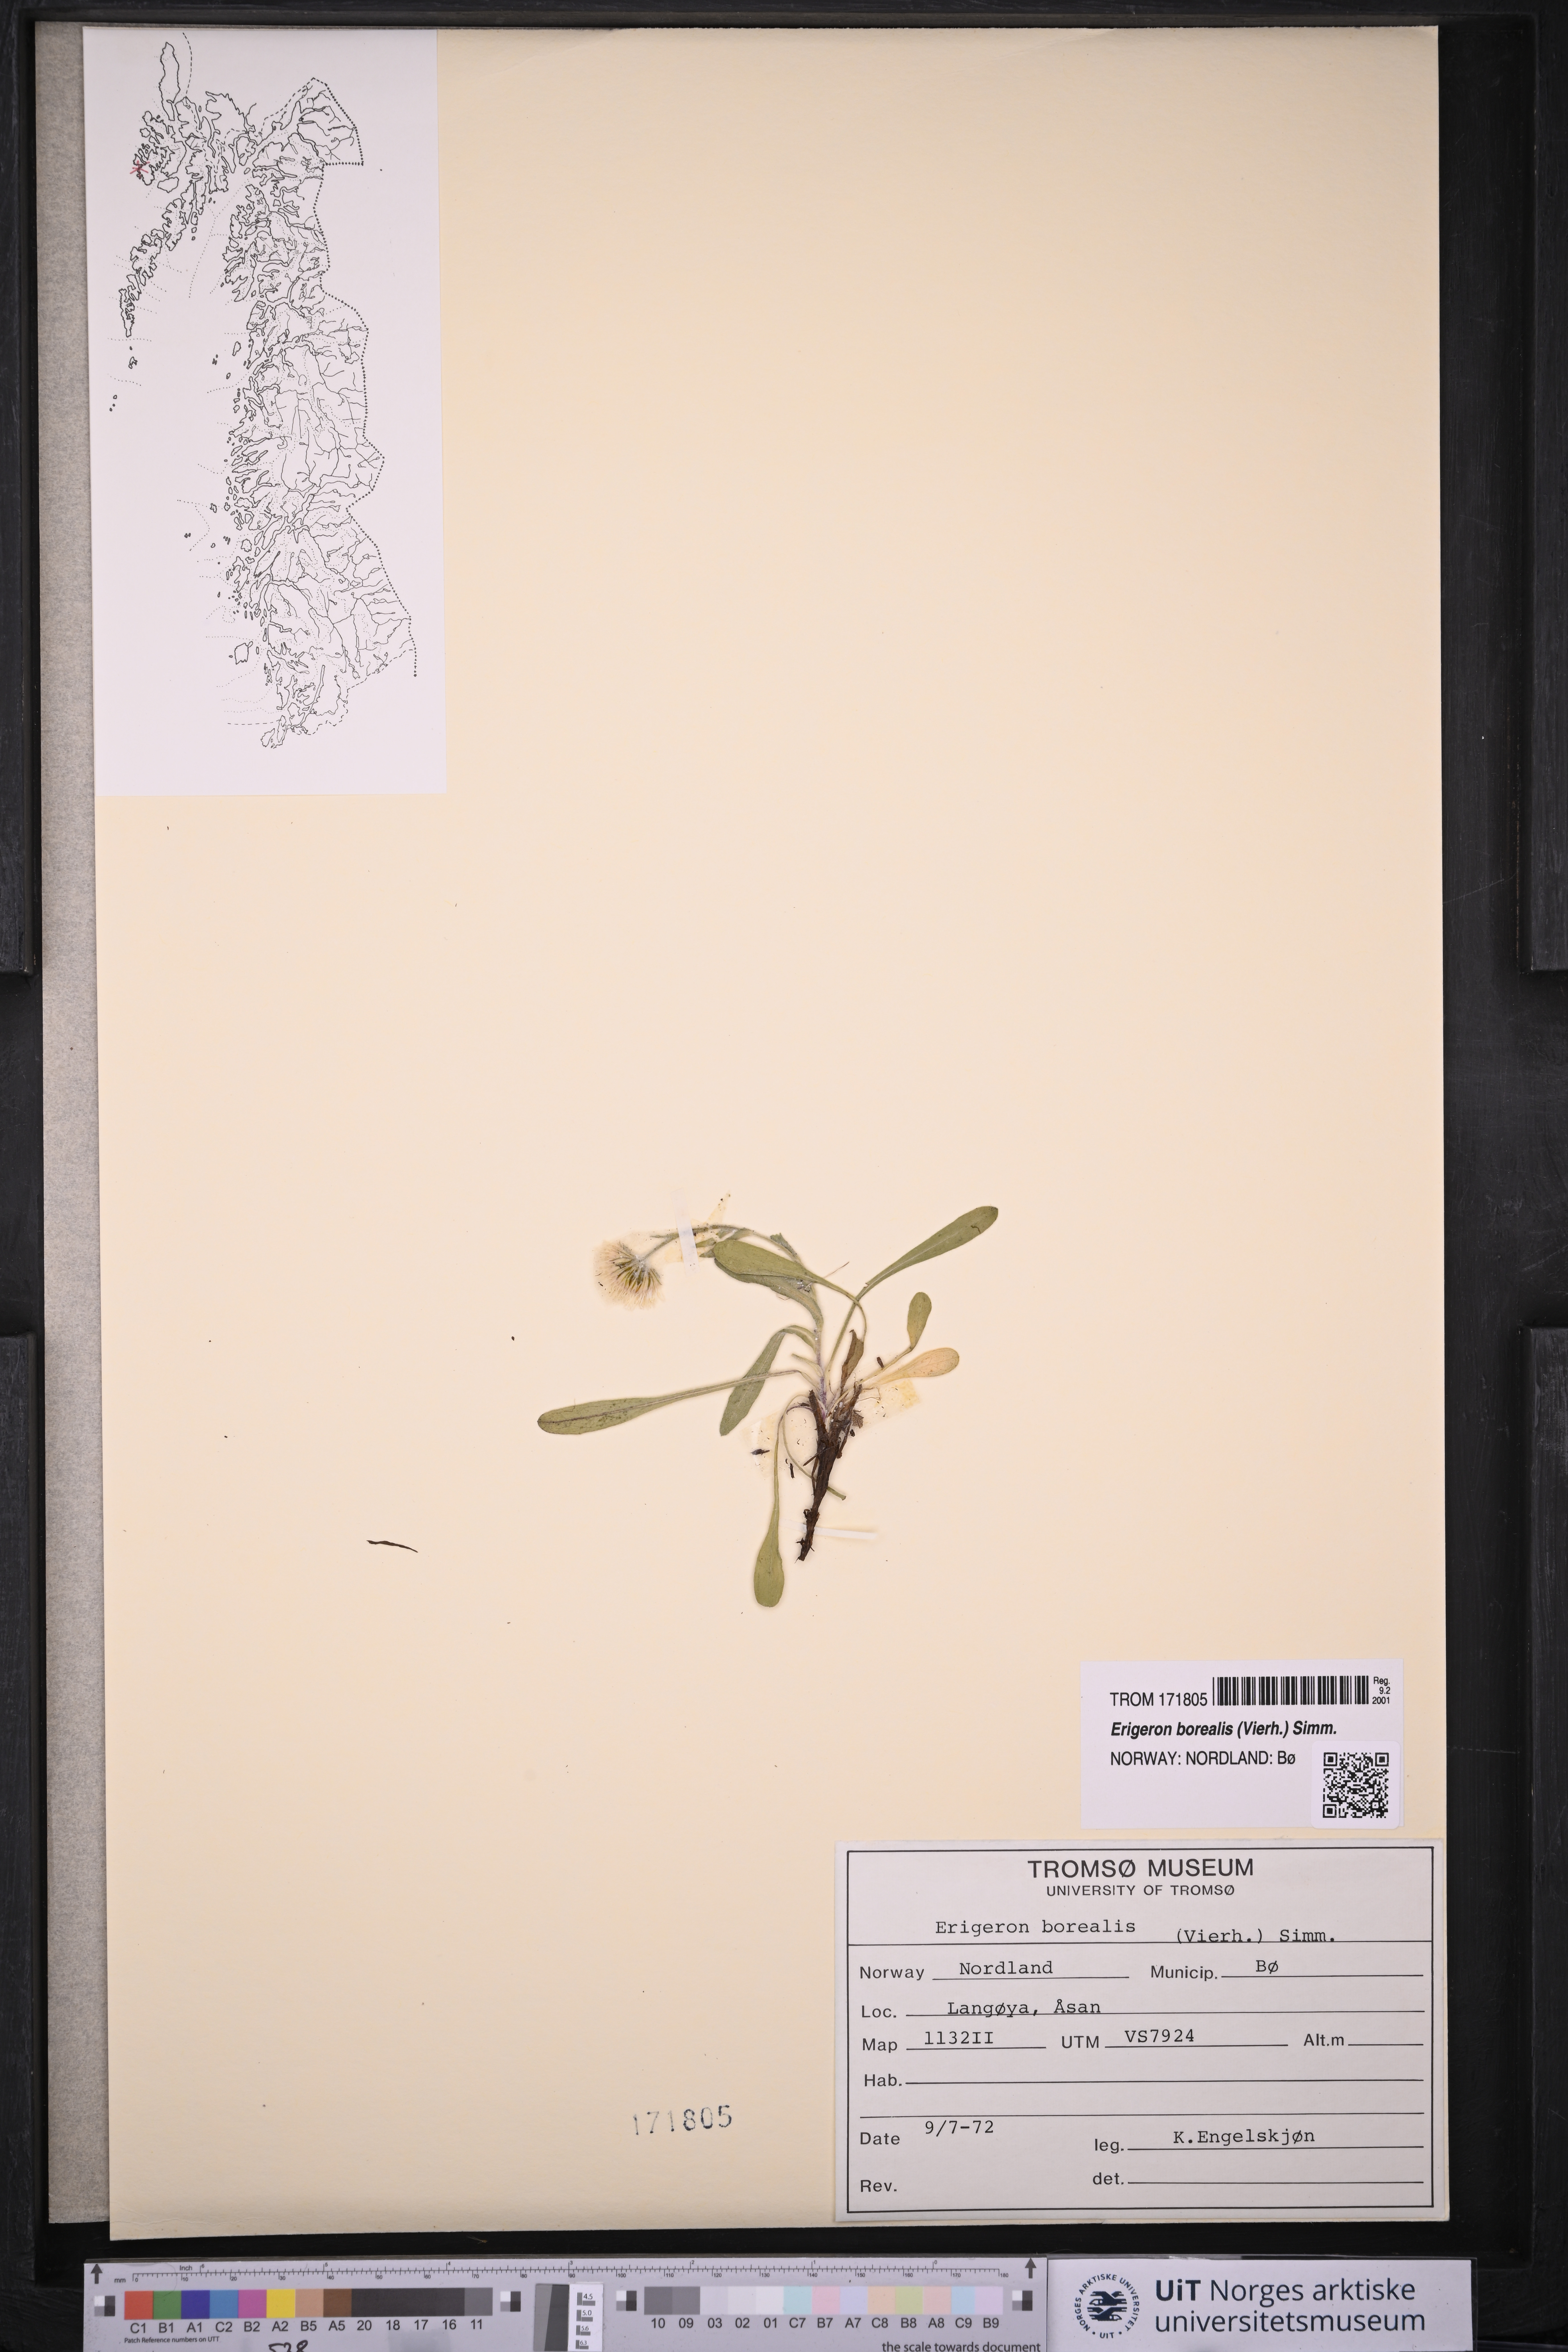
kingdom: Plantae
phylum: Tracheophyta
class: Magnoliopsida
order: Asterales
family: Asteraceae
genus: Erigeron
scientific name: Erigeron borealis
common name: Alpine fleabane
